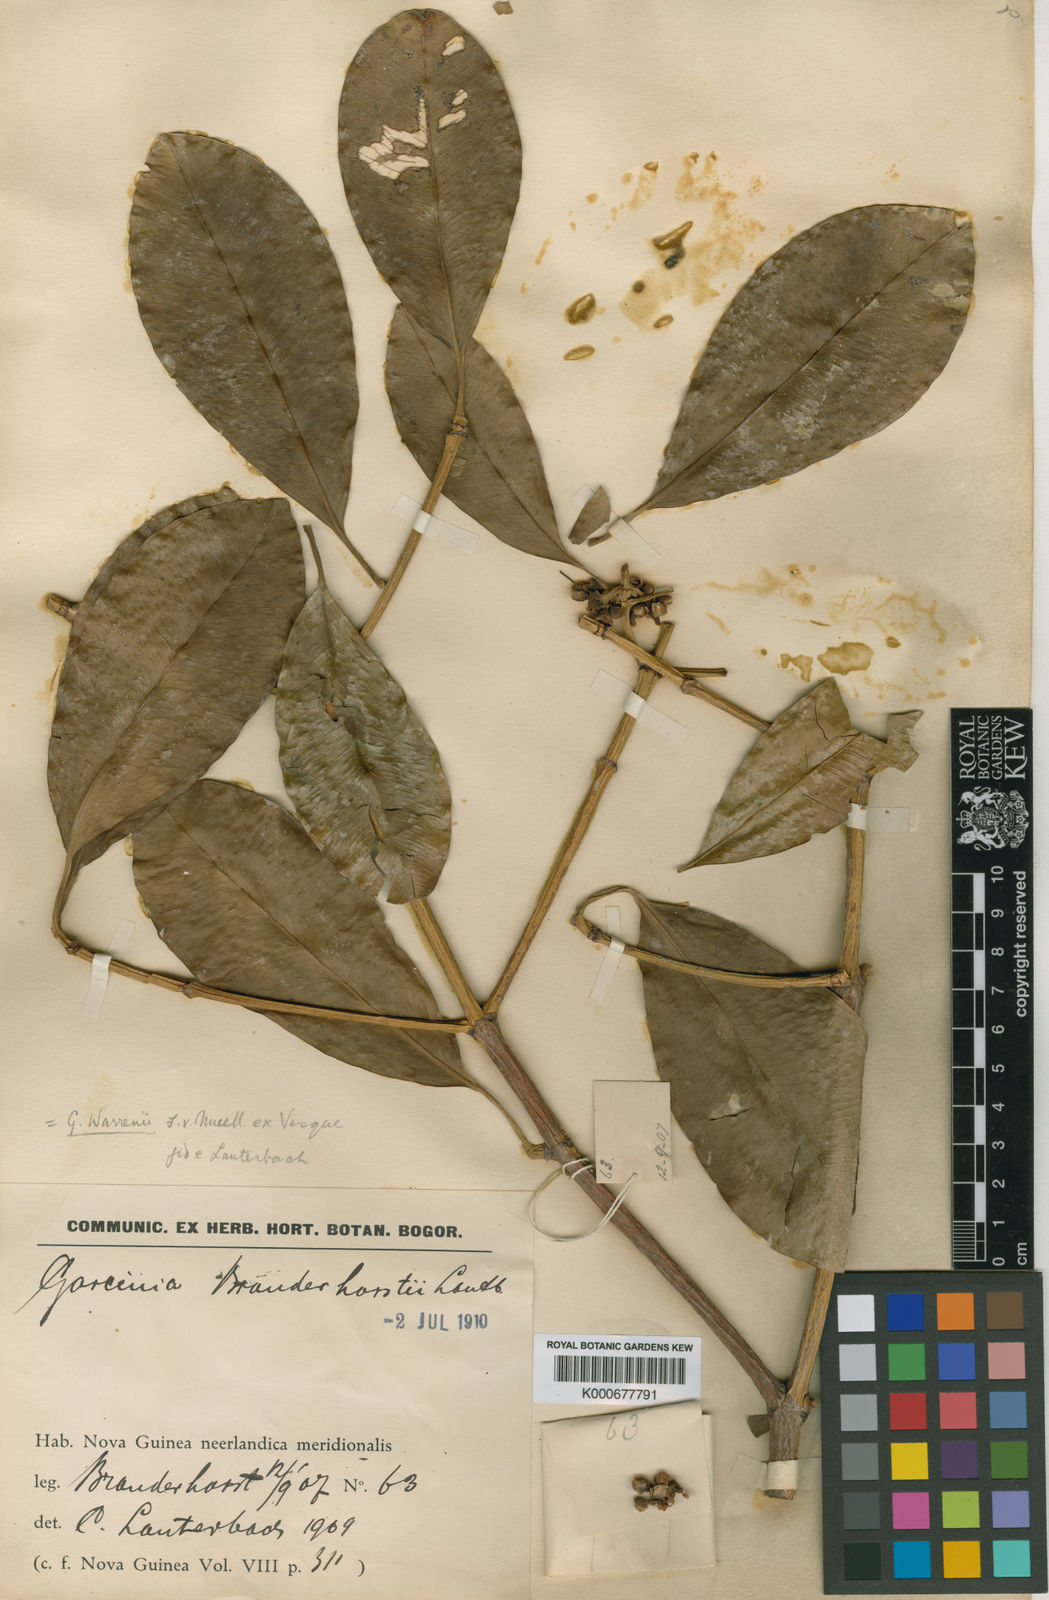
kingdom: Plantae
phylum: Tracheophyta
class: Magnoliopsida
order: Malpighiales
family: Clusiaceae
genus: Garcinia
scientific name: Garcinia warrenii
